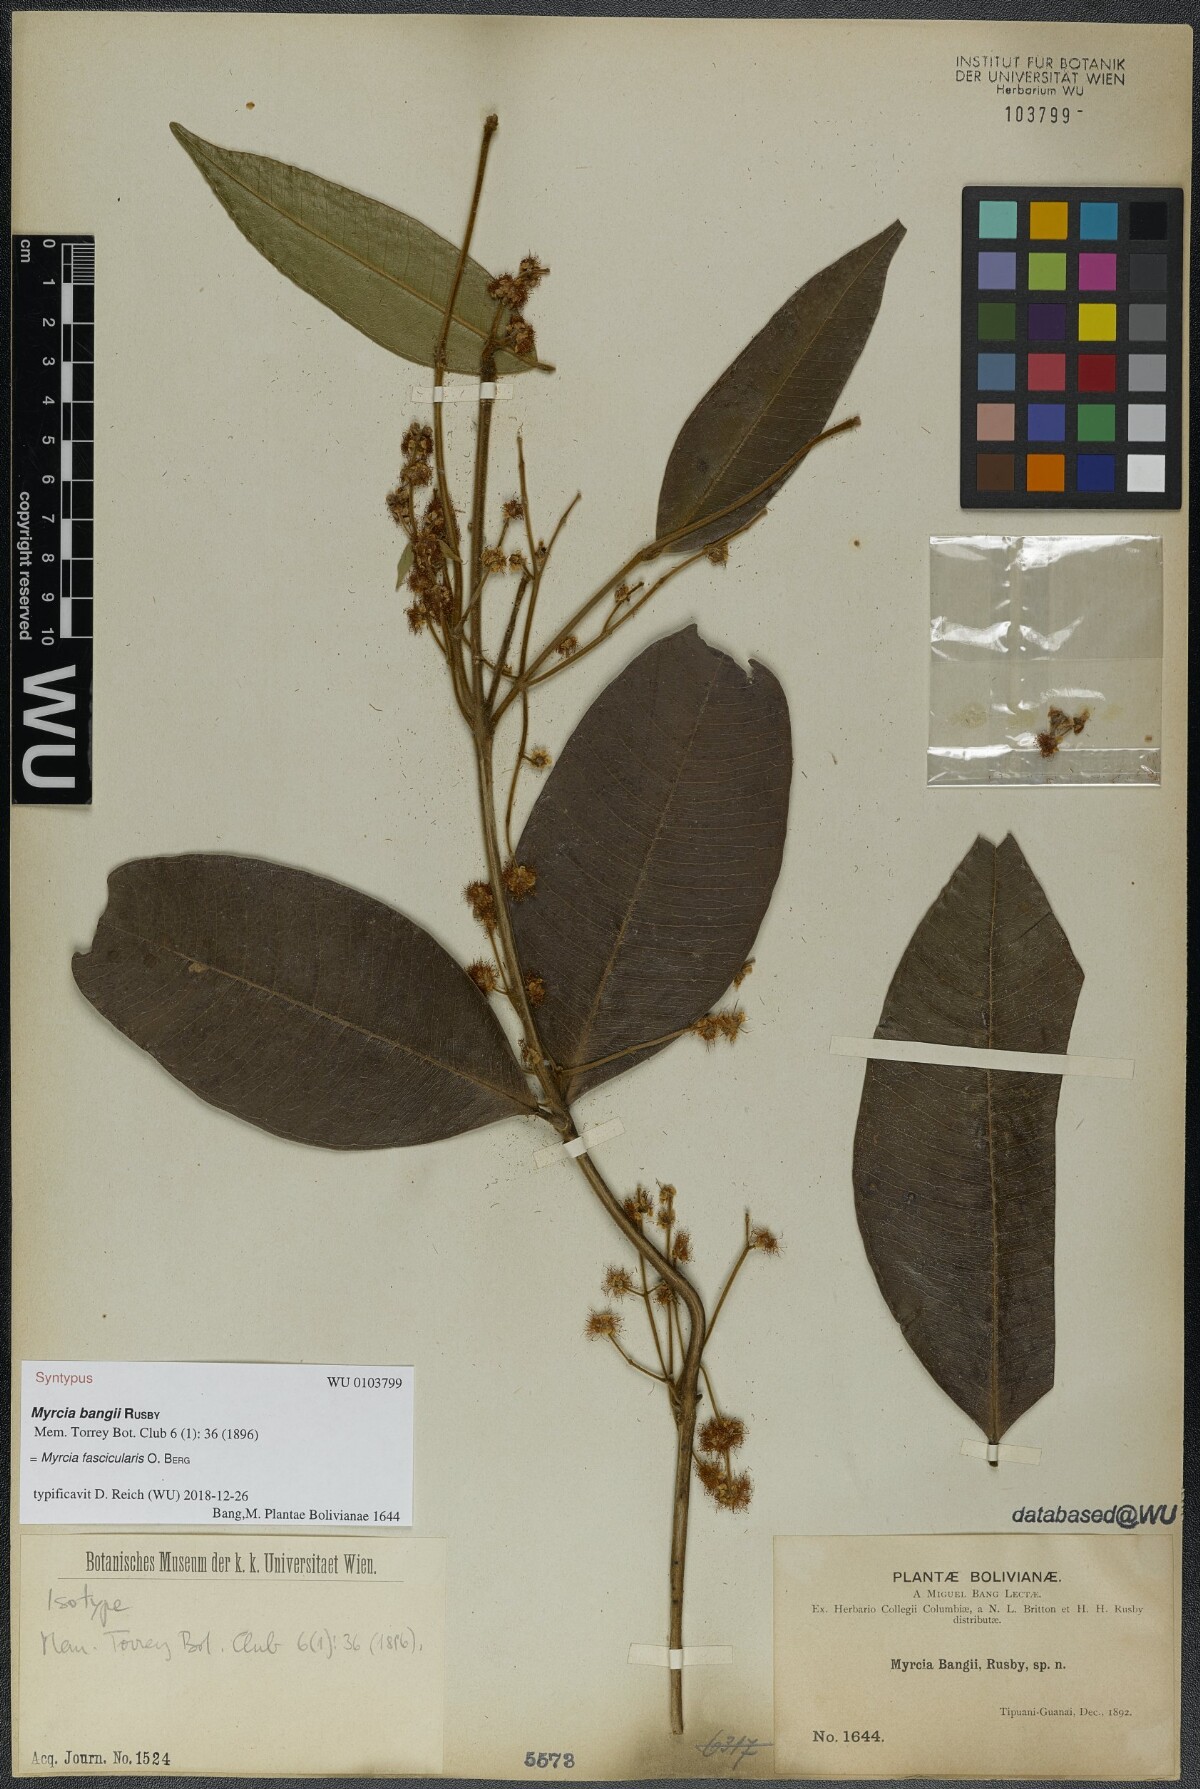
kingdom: Plantae
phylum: Tracheophyta
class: Magnoliopsida
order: Myrtales
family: Myrtaceae
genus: Myrcia
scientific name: Myrcia fascicularis
